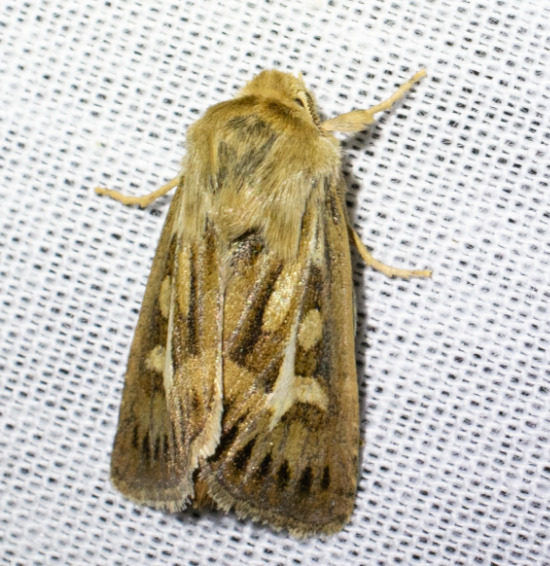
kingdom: Animalia
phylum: Arthropoda
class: Insecta
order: Lepidoptera
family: Noctuidae
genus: Cerapteryx
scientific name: Cerapteryx graminis
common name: Mosebunkeugle
